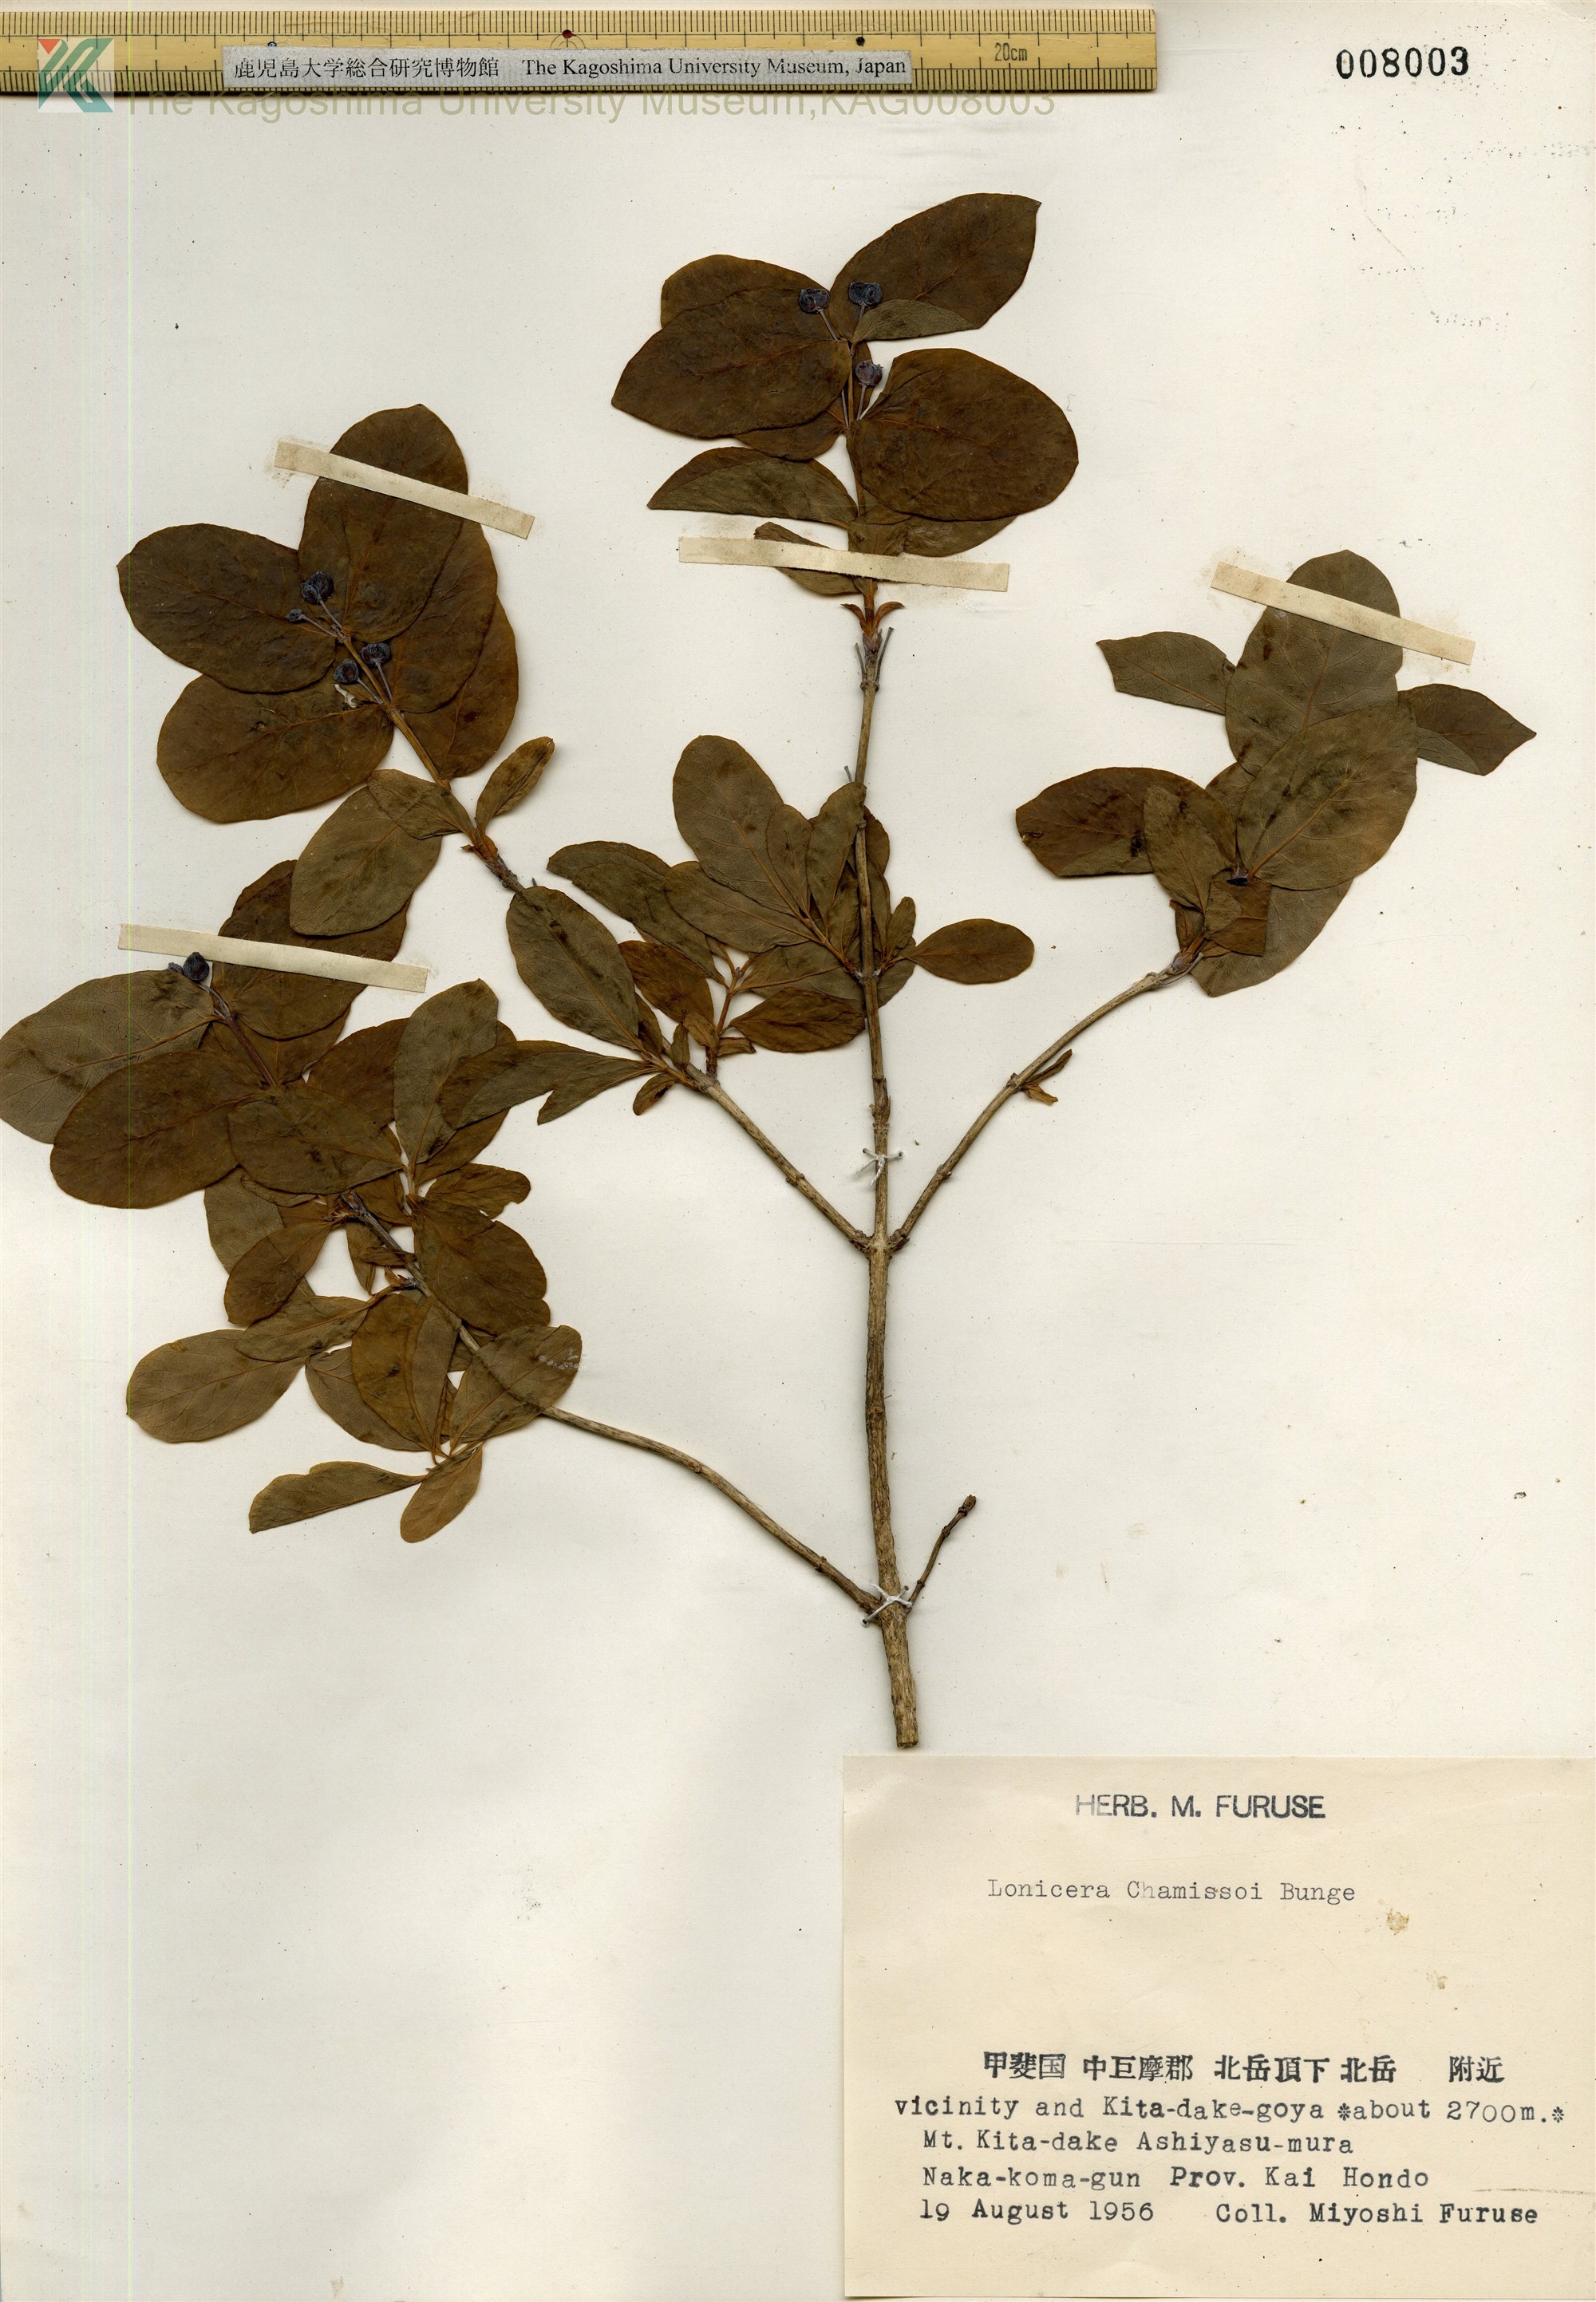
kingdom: Plantae
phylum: Tracheophyta
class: Magnoliopsida
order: Dipsacales
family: Caprifoliaceae
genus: Lonicera
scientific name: Lonicera chamissoi
